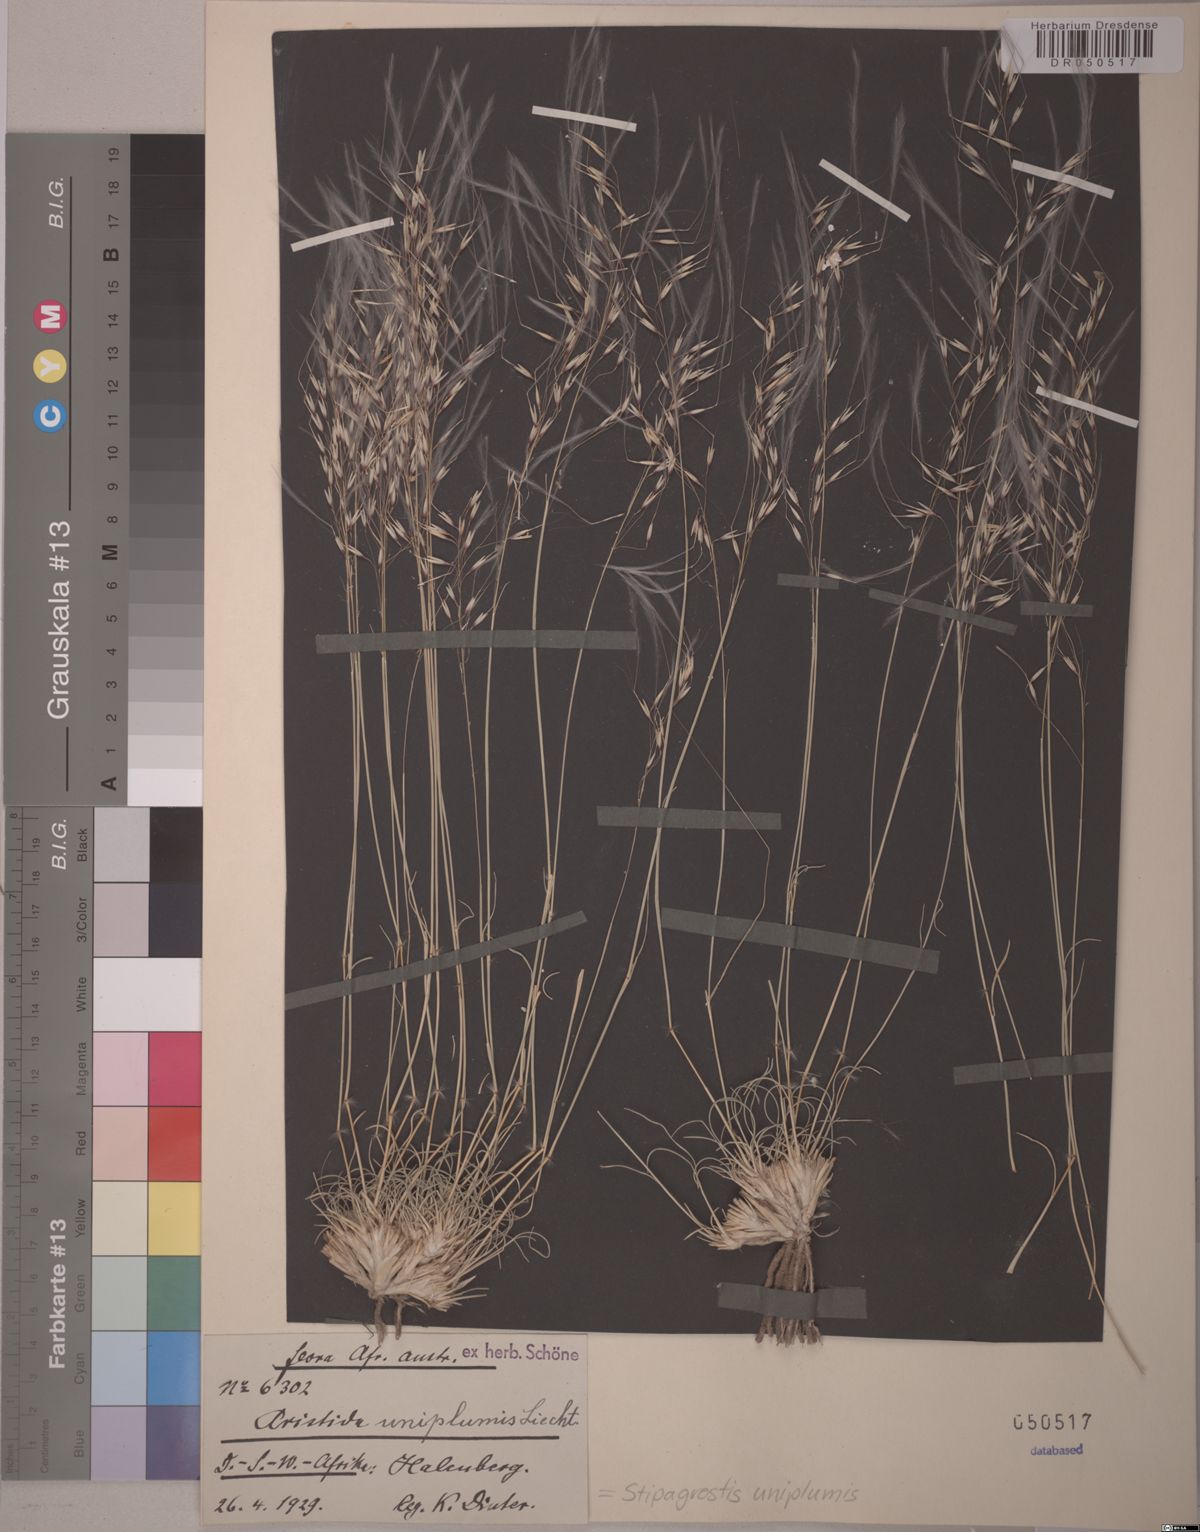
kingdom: Plantae
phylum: Tracheophyta
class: Liliopsida
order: Poales
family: Poaceae
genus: Stipagrostis
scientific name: Stipagrostis uniplumis
